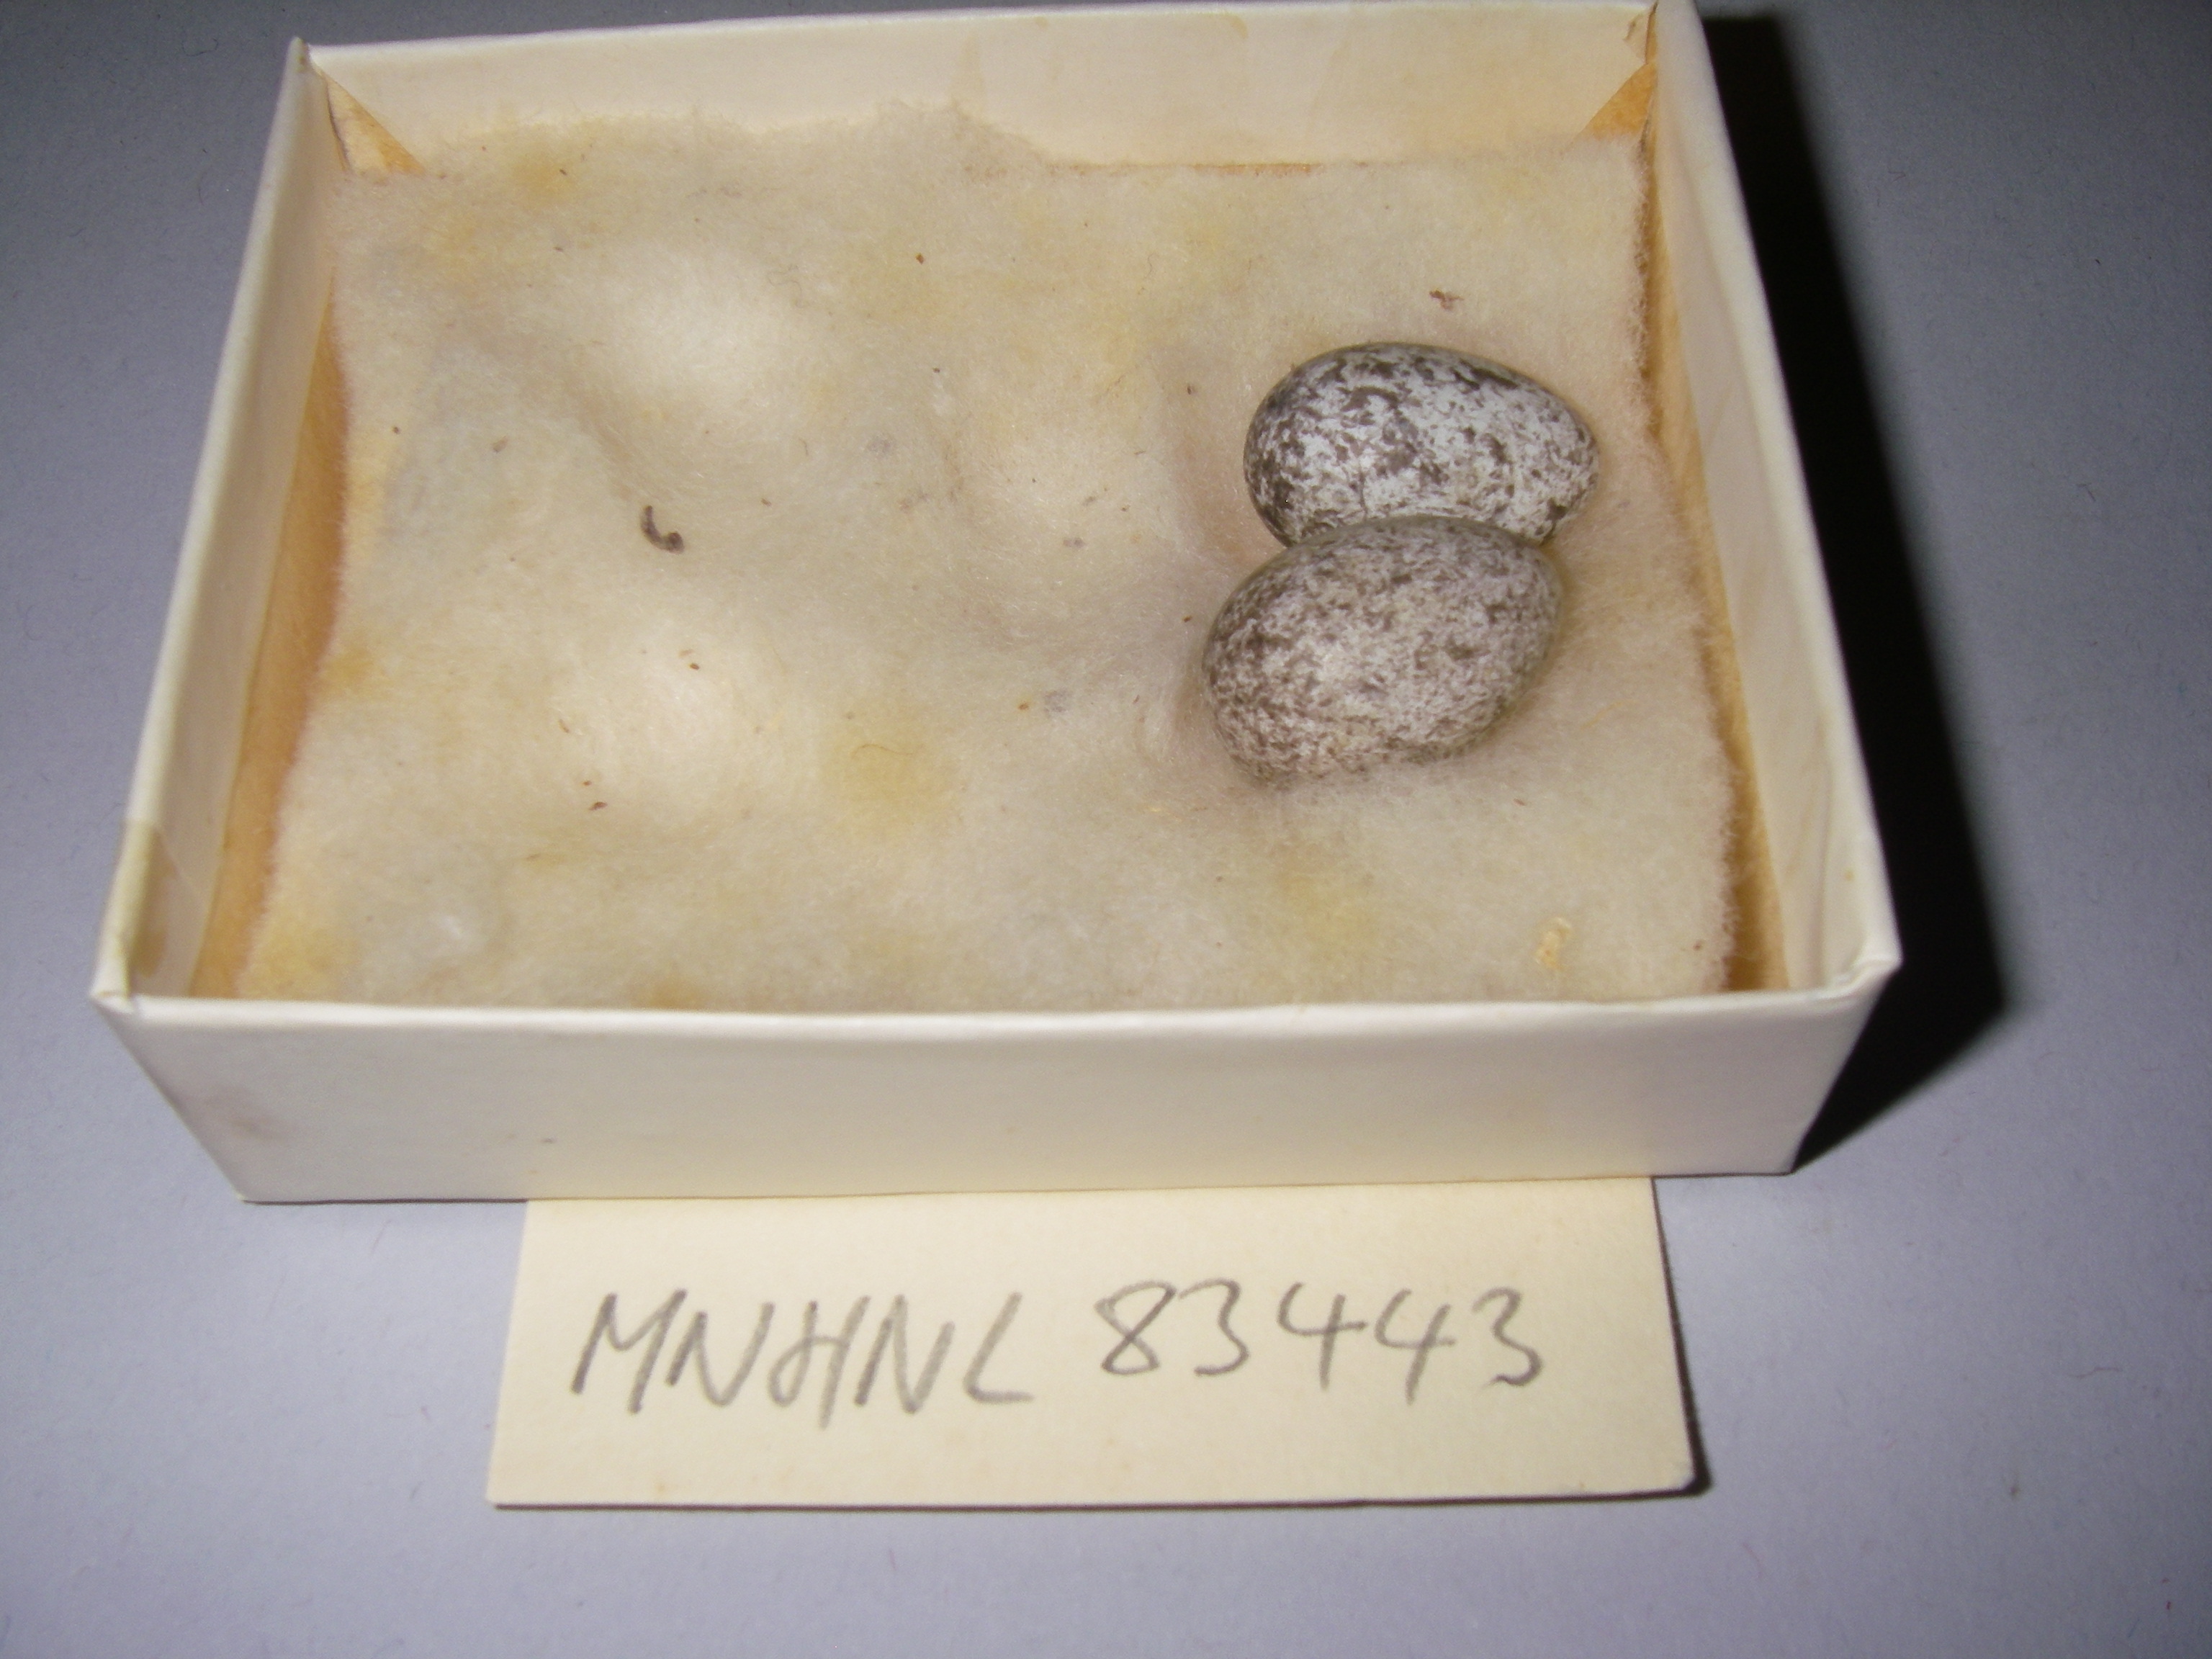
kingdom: Animalia
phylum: Chordata
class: Aves
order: Passeriformes
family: Passeridae
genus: Passer
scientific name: Passer montanus
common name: Eurasian tree sparrow
